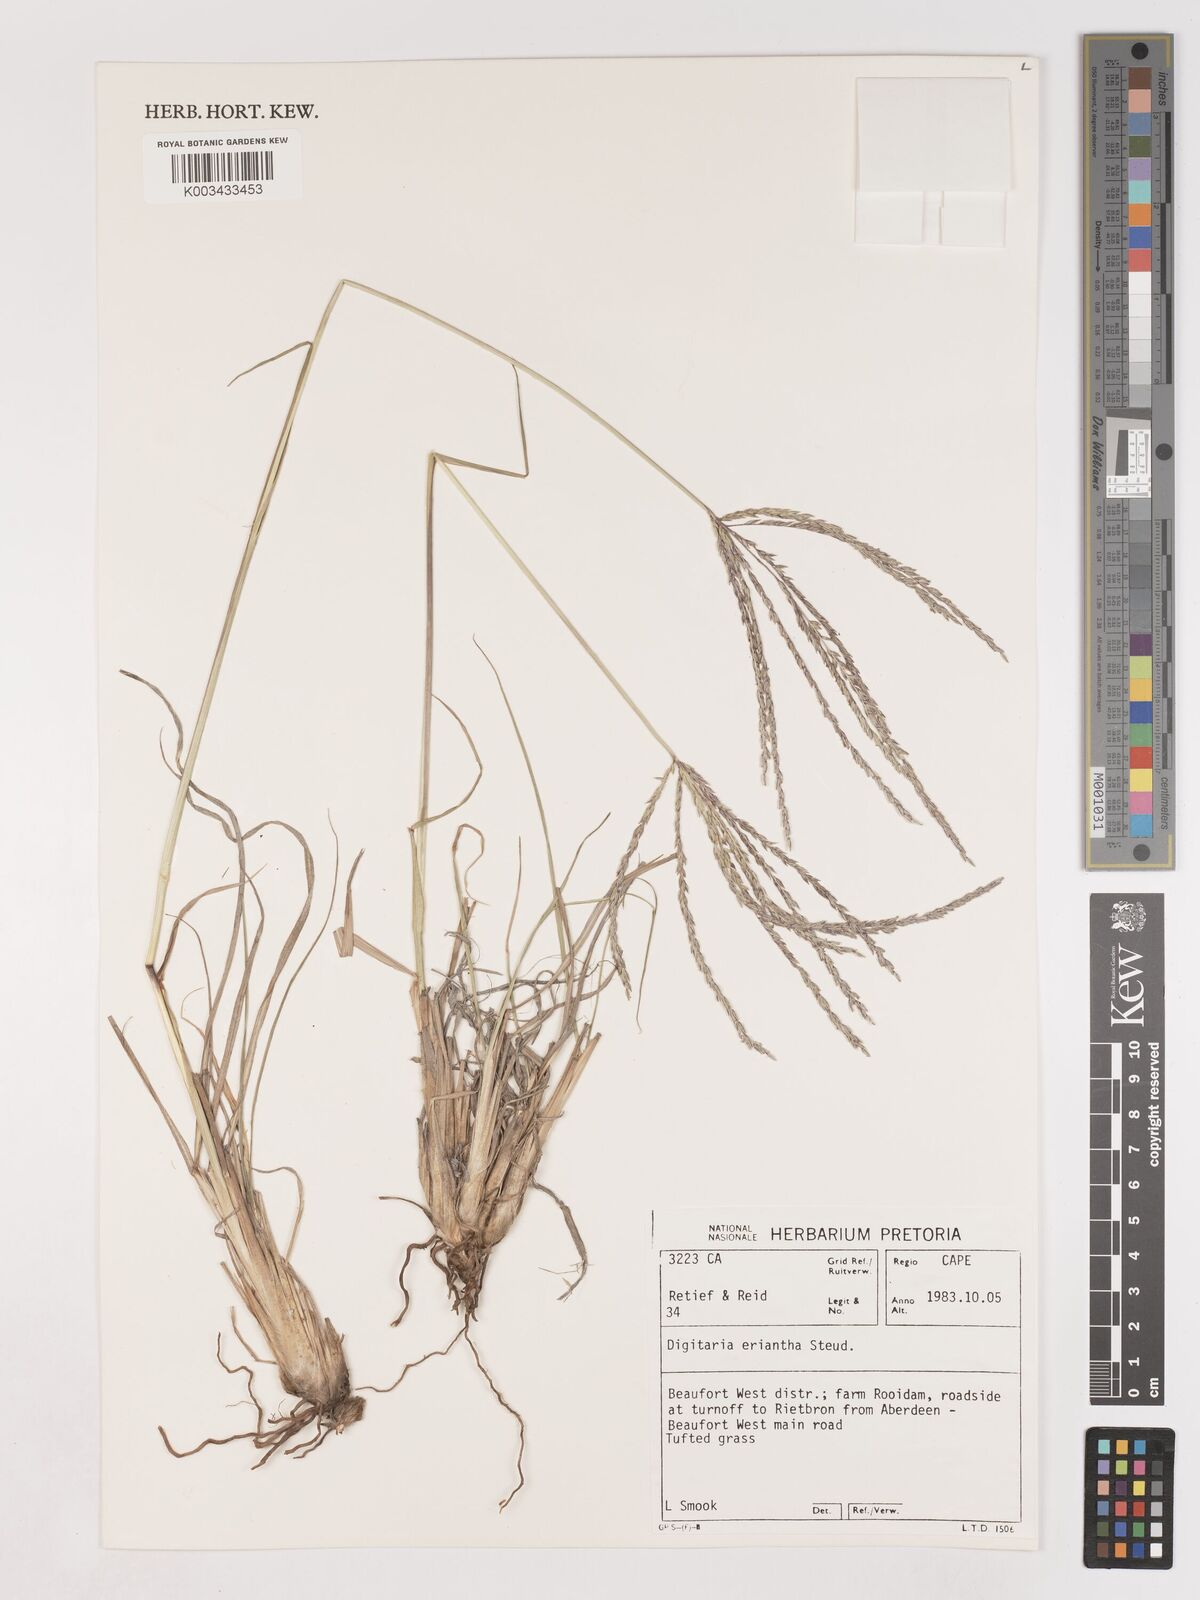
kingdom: Plantae
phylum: Tracheophyta
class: Liliopsida
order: Poales
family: Poaceae
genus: Digitaria
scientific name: Digitaria eriantha
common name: Digitgrass
